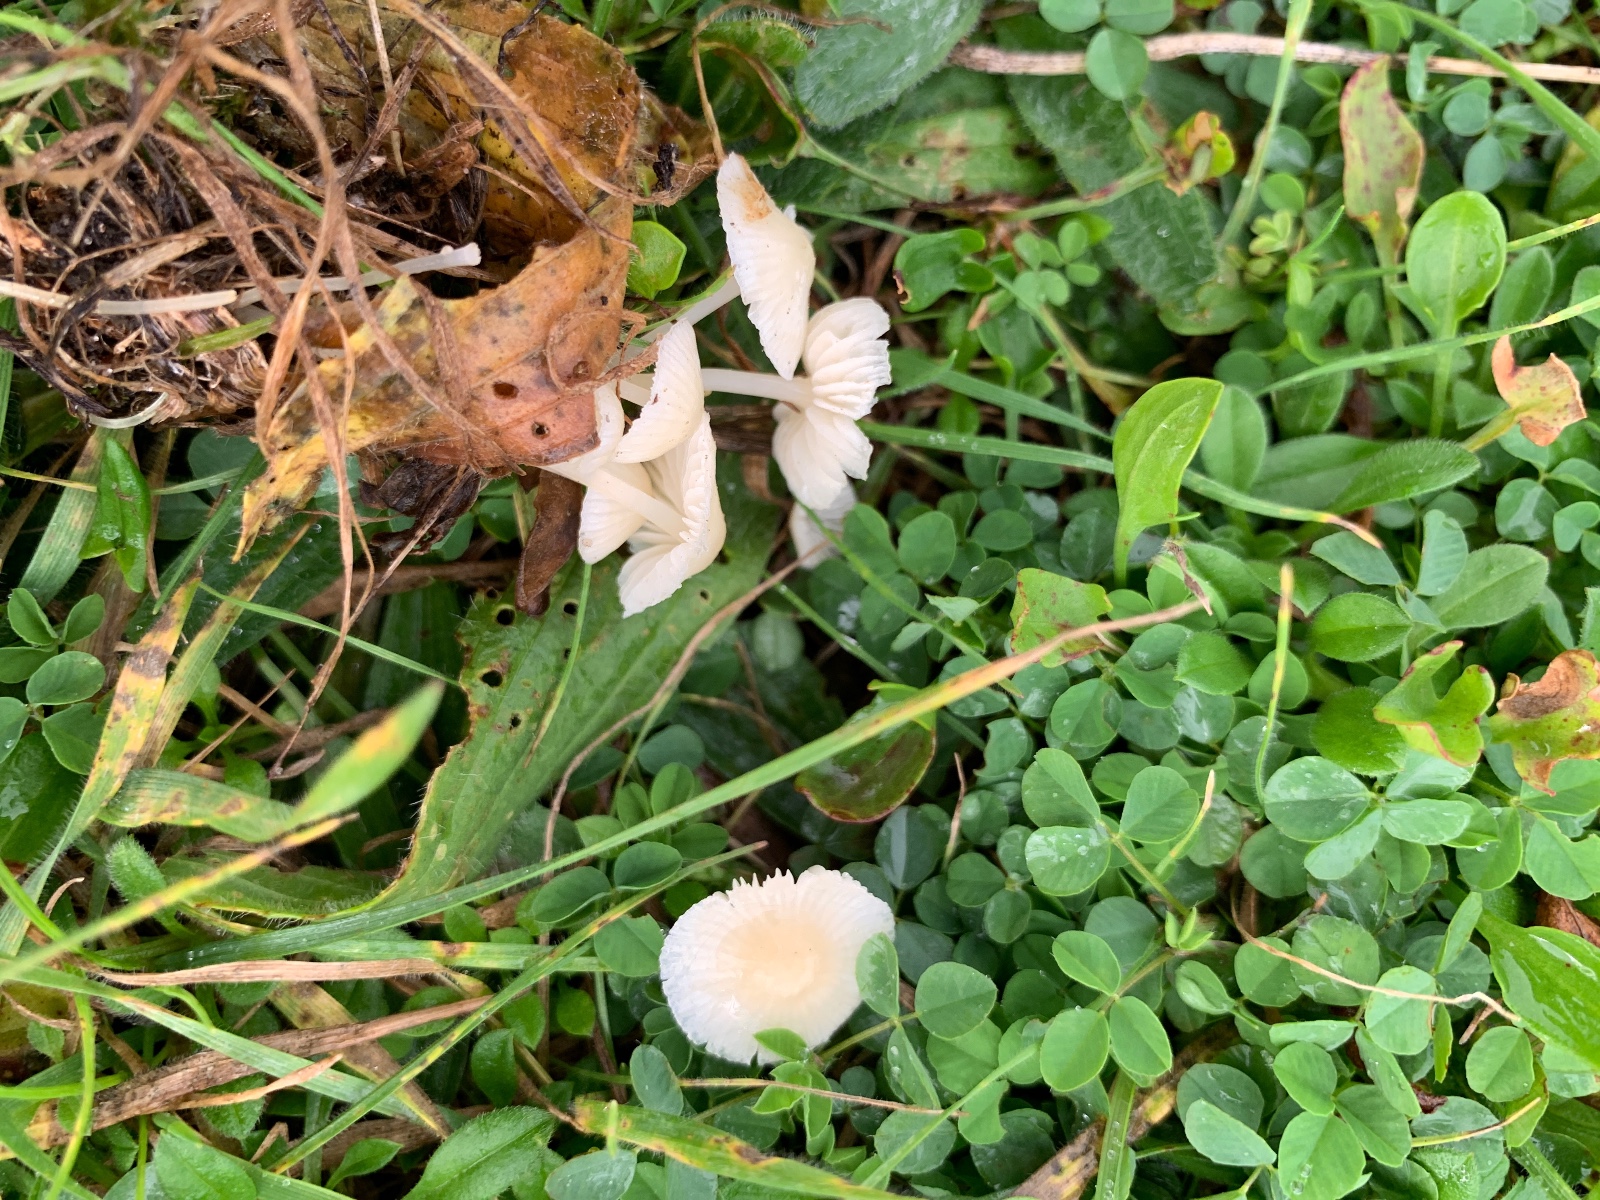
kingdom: Fungi
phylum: Basidiomycota
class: Agaricomycetes
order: Agaricales
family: Mycenaceae
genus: Atheniella
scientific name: Atheniella flavoalba
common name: gulhvid huesvamp
